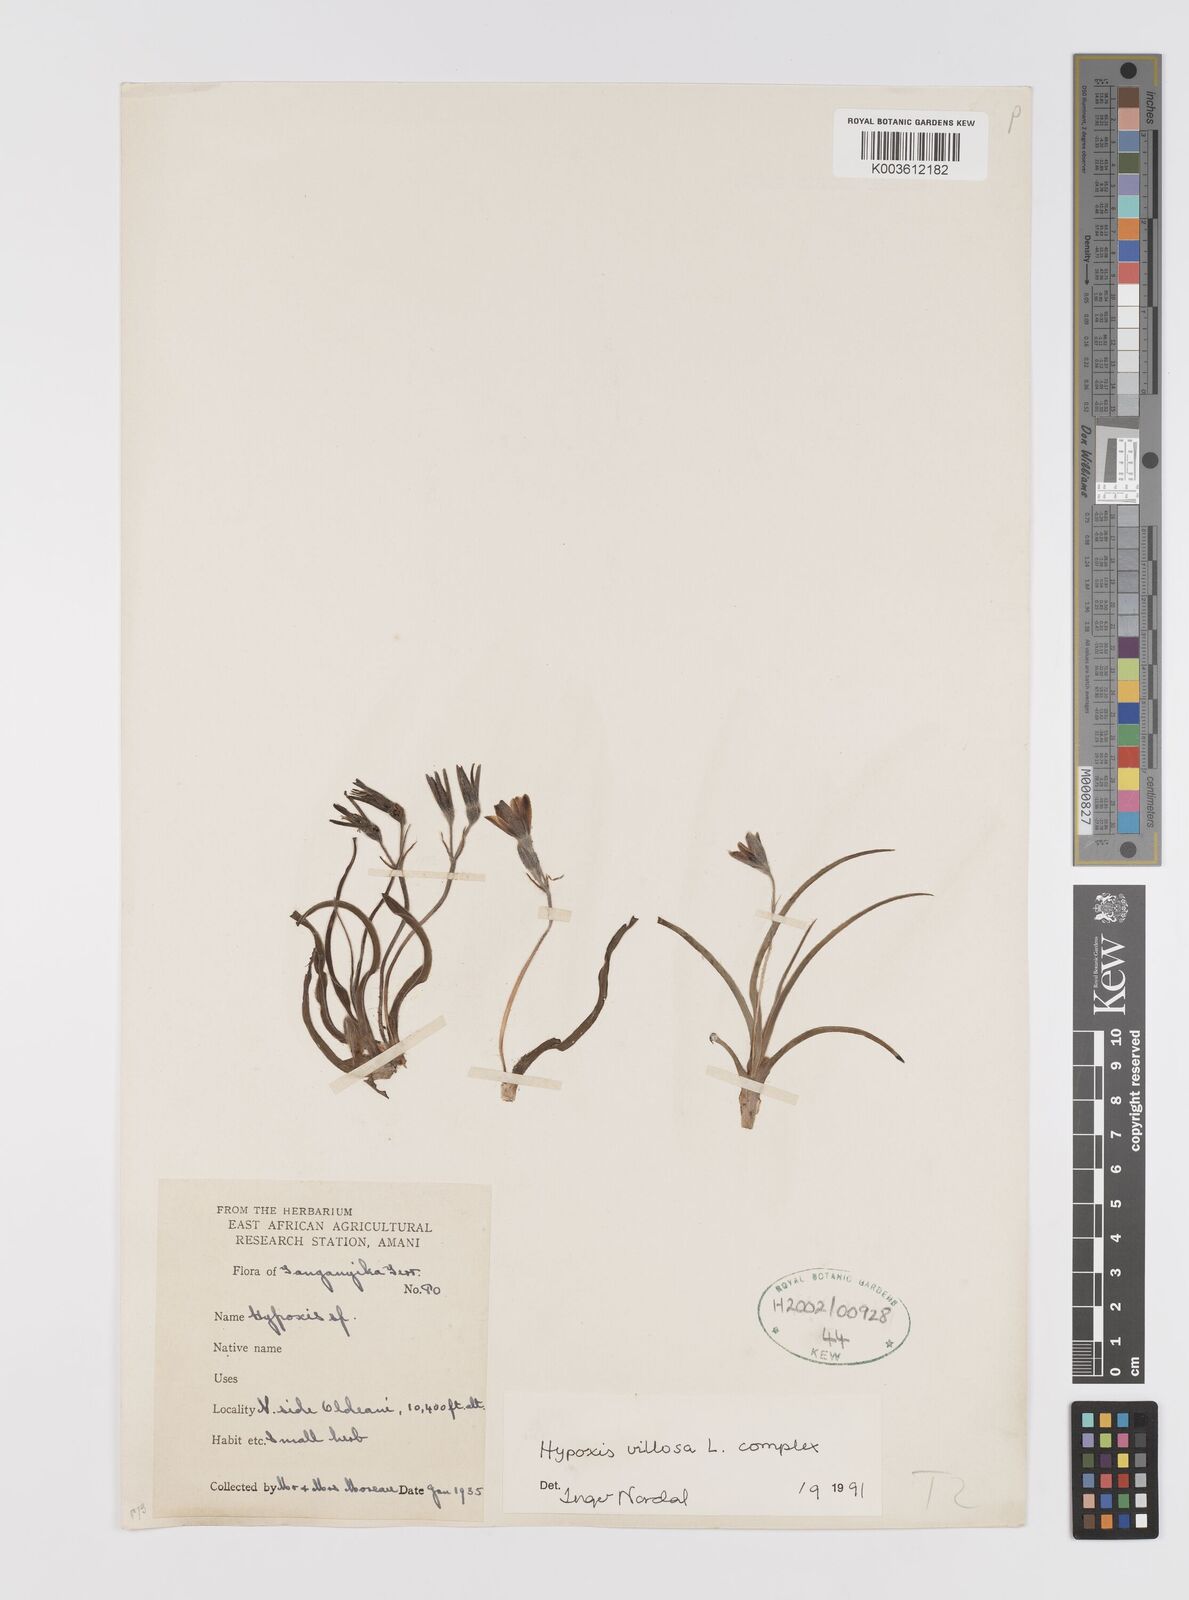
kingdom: Plantae
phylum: Tracheophyta
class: Liliopsida
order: Asparagales
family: Hypoxidaceae
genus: Hypoxis
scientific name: Hypoxis schimperi
